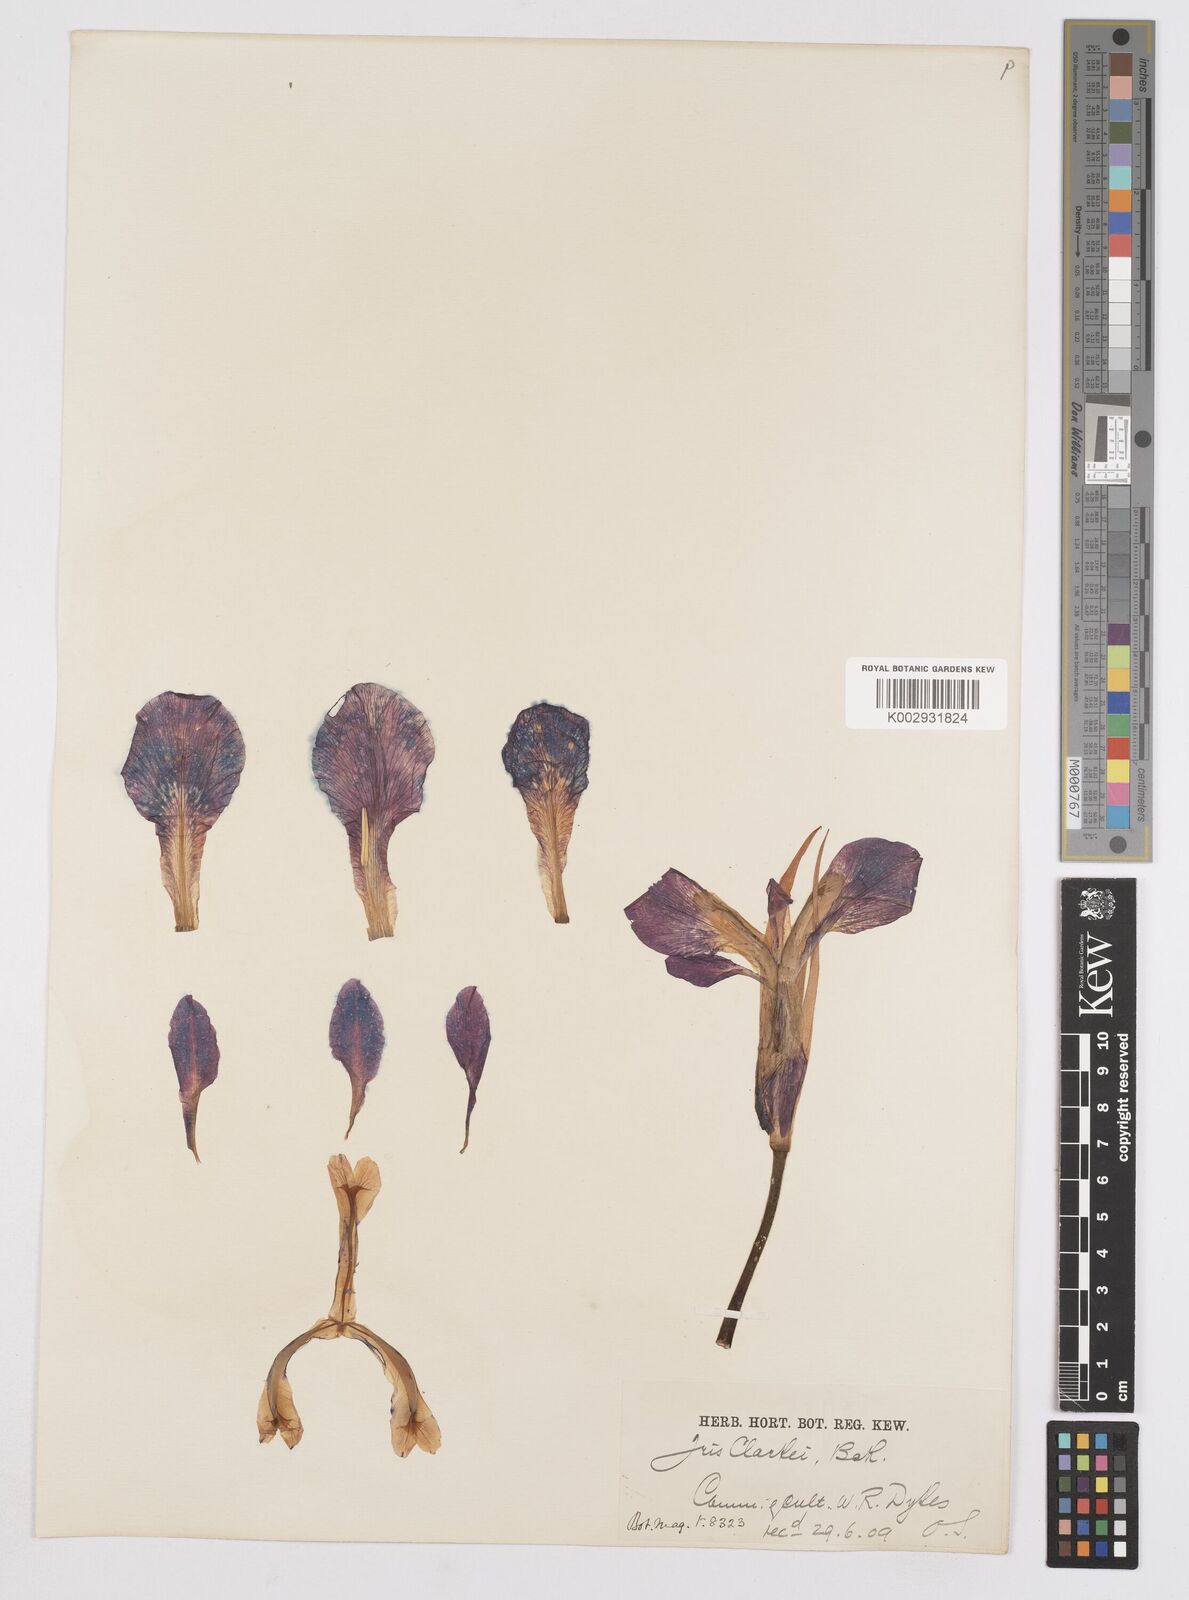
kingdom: Plantae
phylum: Tracheophyta
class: Liliopsida
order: Asparagales
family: Iridaceae
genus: Iris
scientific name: Iris clarkei
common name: Tibet iris
